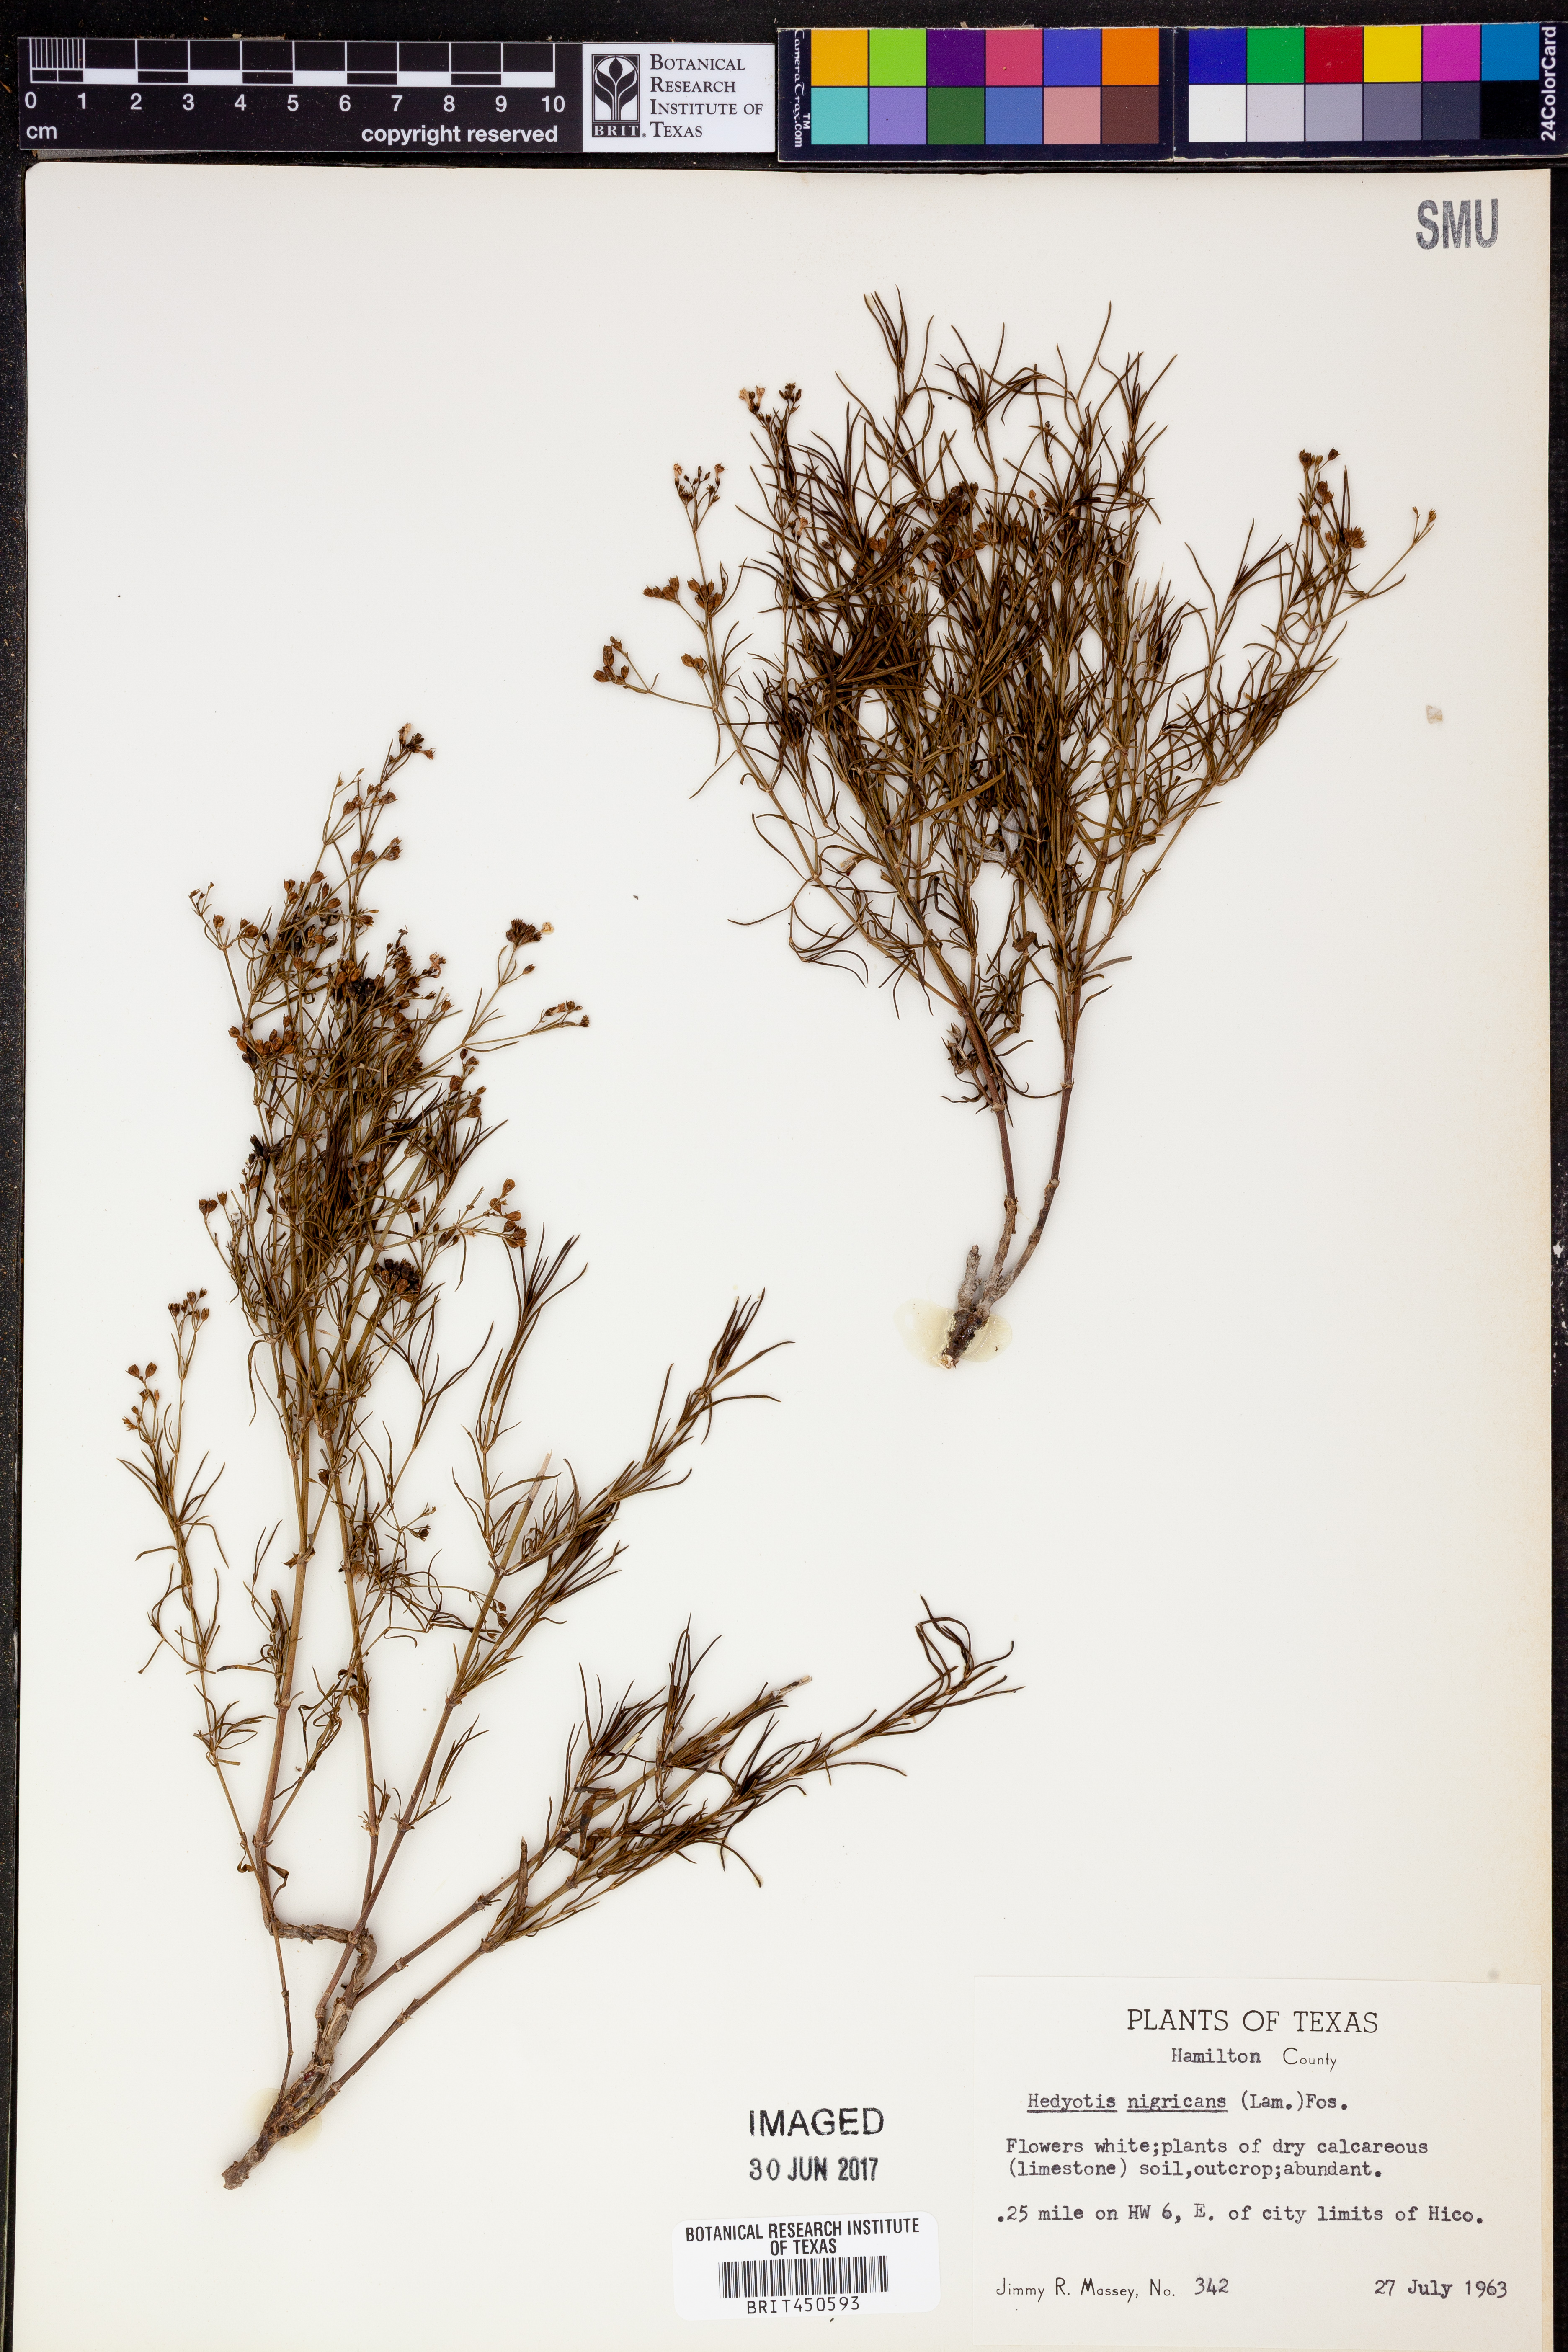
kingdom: Plantae
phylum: Tracheophyta
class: Magnoliopsida
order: Gentianales
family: Rubiaceae
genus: Stenaria
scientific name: Stenaria nigricans
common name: Diamondflowers
